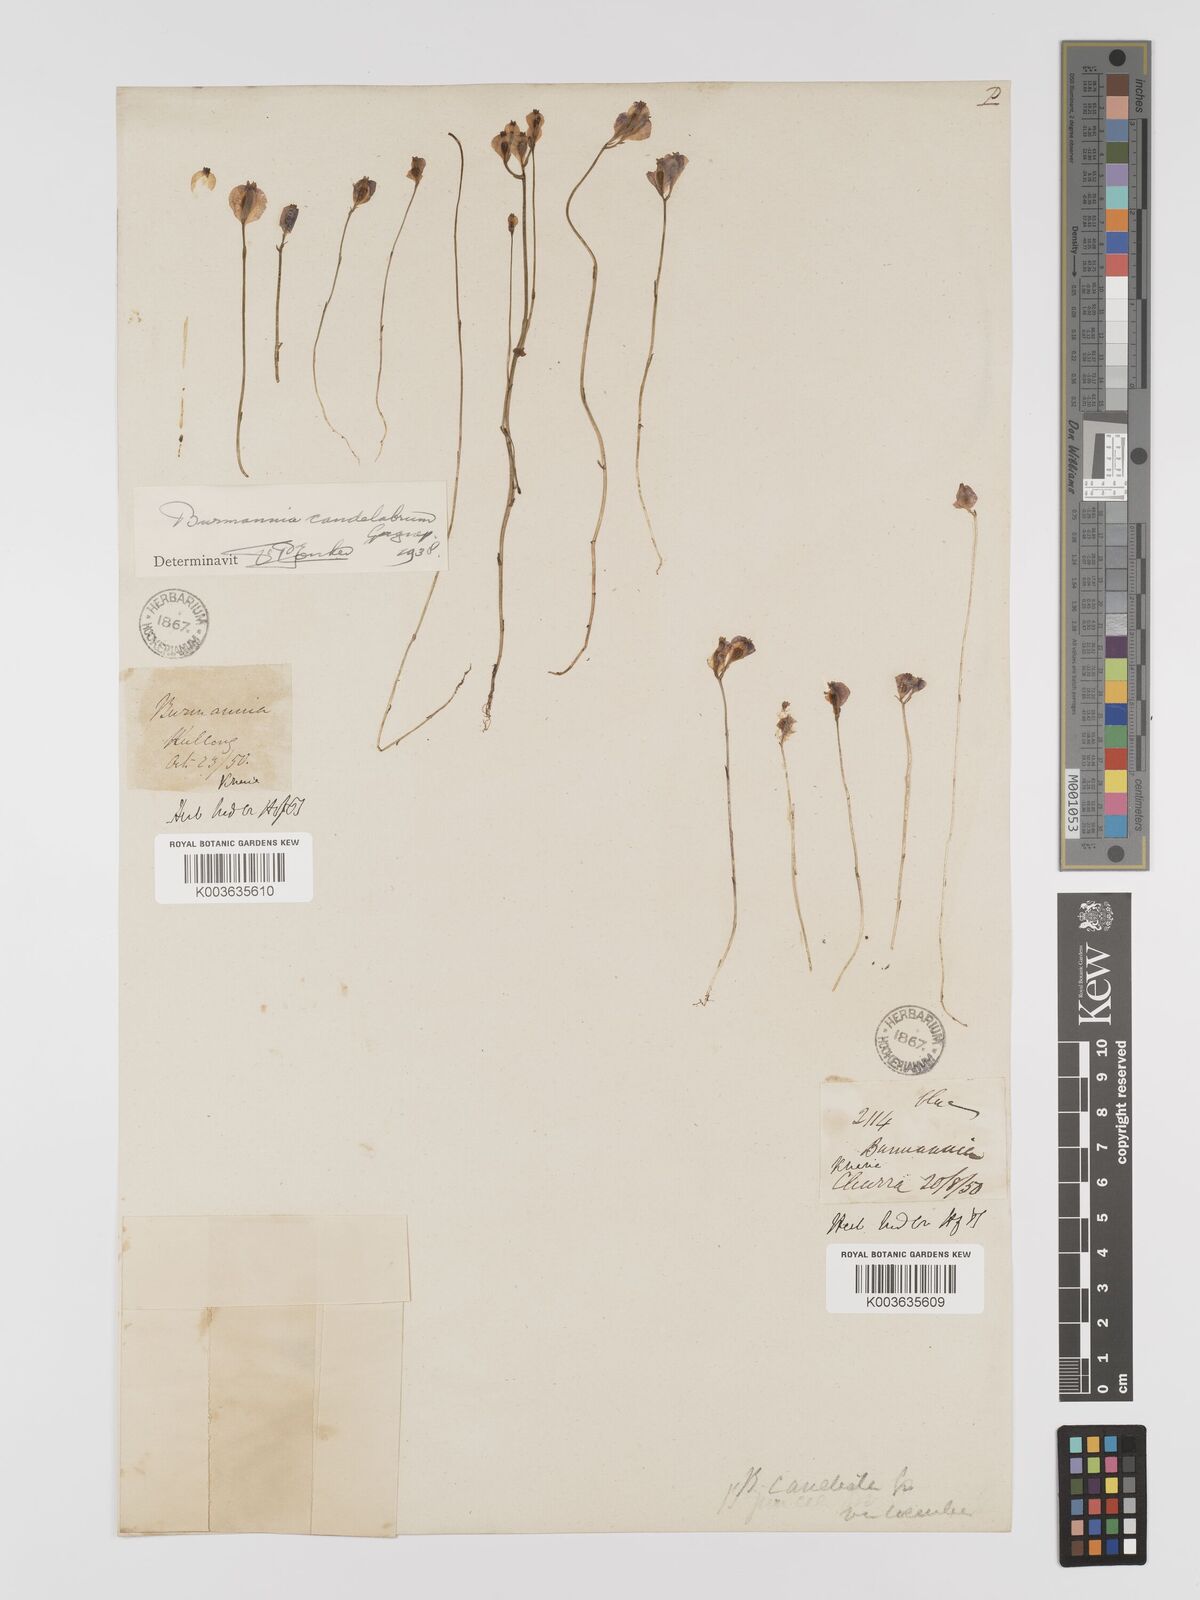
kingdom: Plantae
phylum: Tracheophyta
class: Liliopsida
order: Dioscoreales
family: Burmanniaceae
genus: Burmannia
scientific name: Burmannia candelabrum
